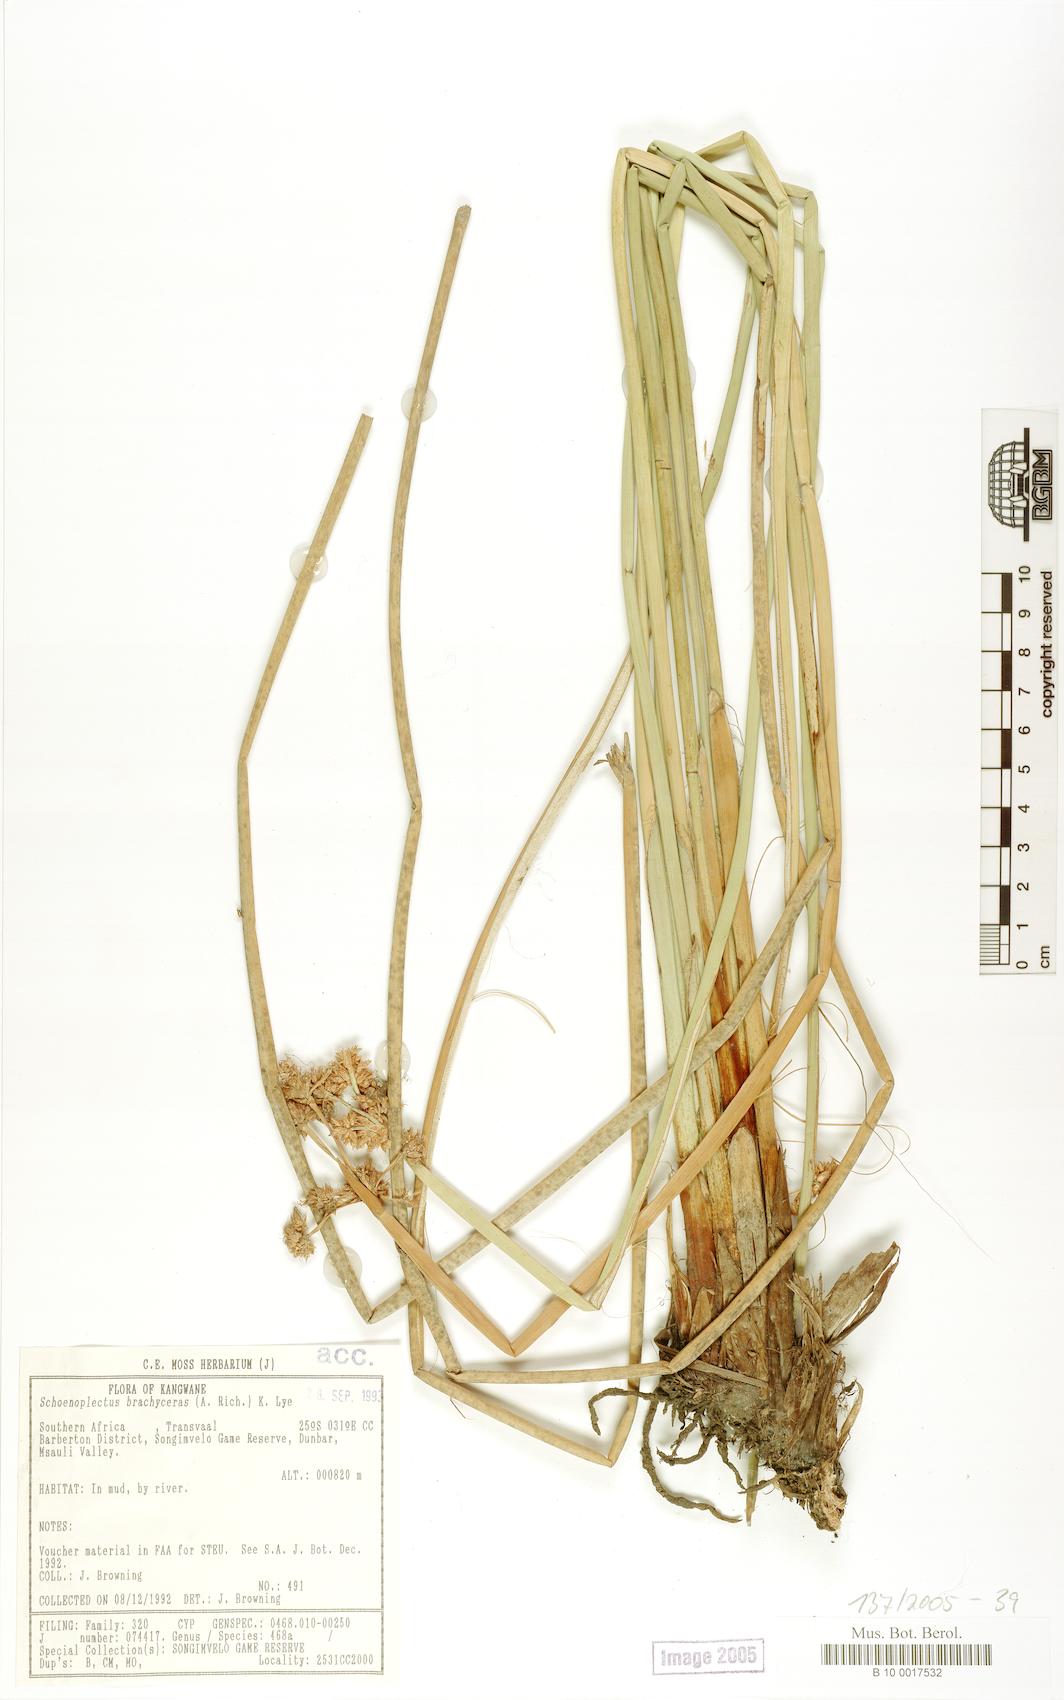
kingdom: Plantae
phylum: Tracheophyta
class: Liliopsida
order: Poales
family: Cyperaceae
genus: Schoenoplectiella
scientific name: Schoenoplectiella brachyceras
